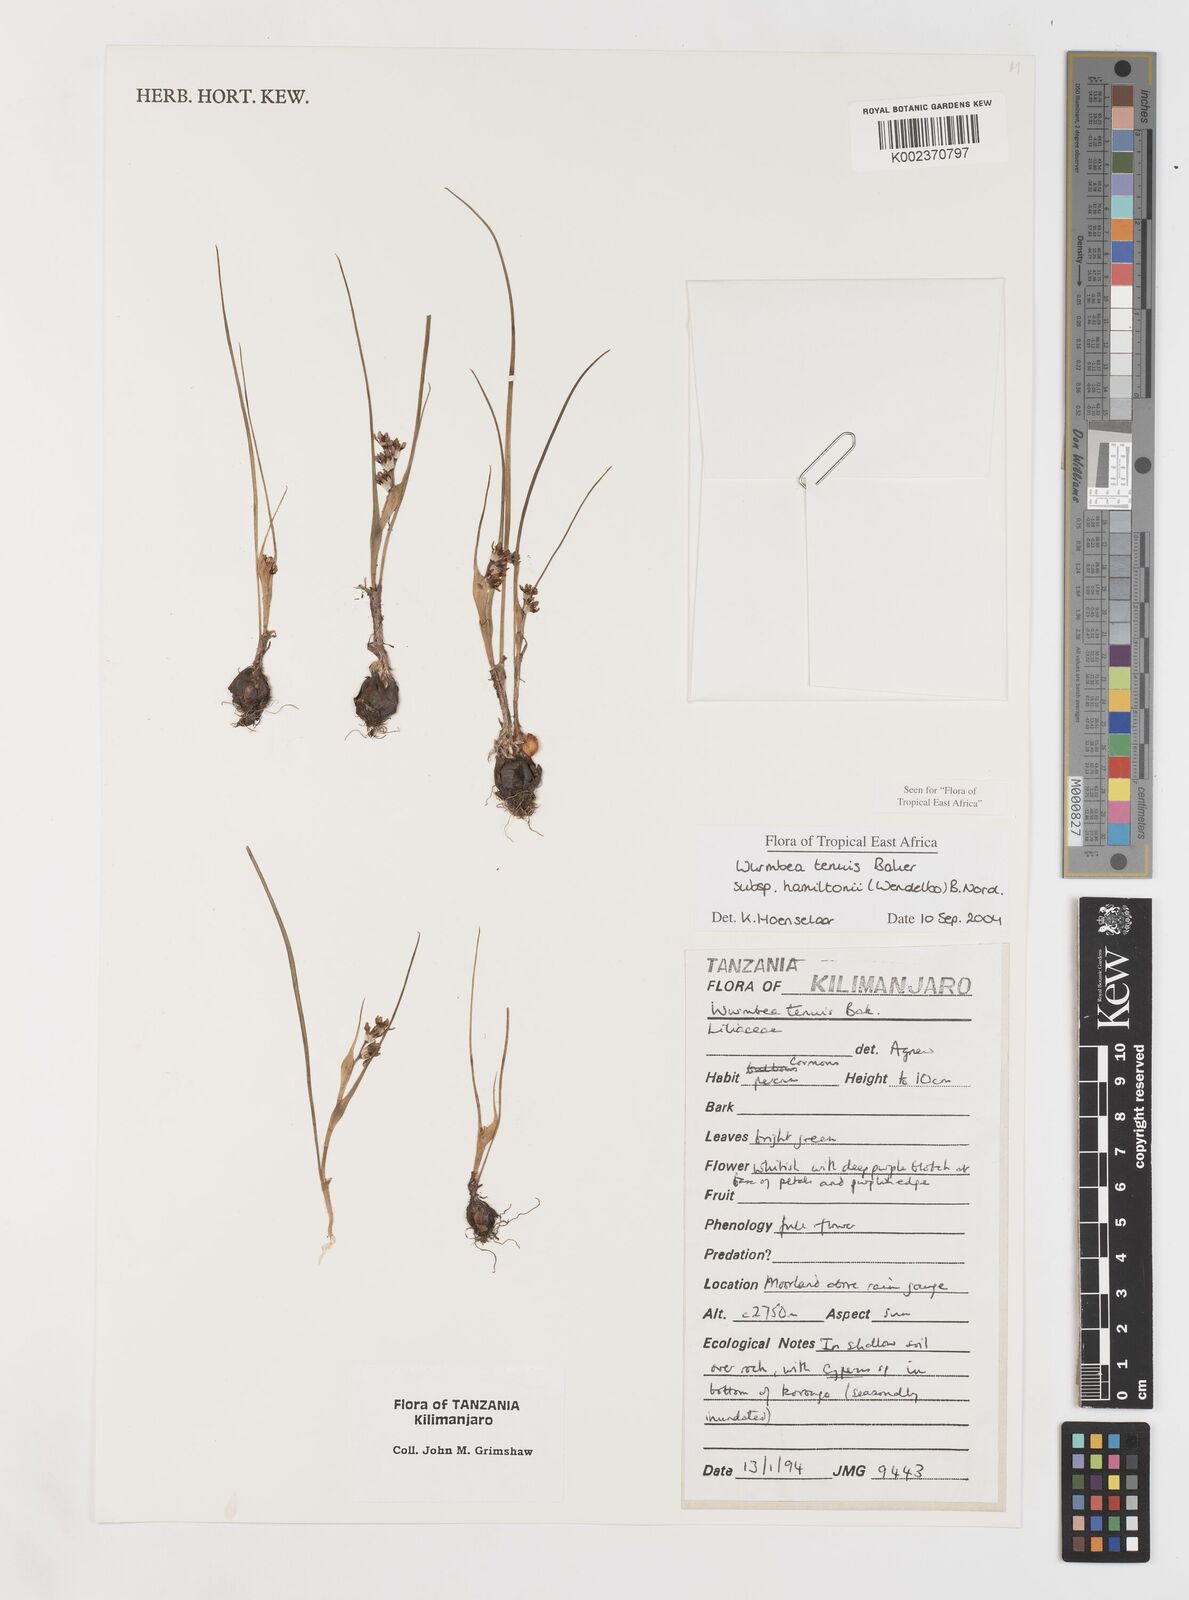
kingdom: Plantae
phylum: Tracheophyta
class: Liliopsida
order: Liliales
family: Colchicaceae
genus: Wurmbea
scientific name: Wurmbea tenuis
